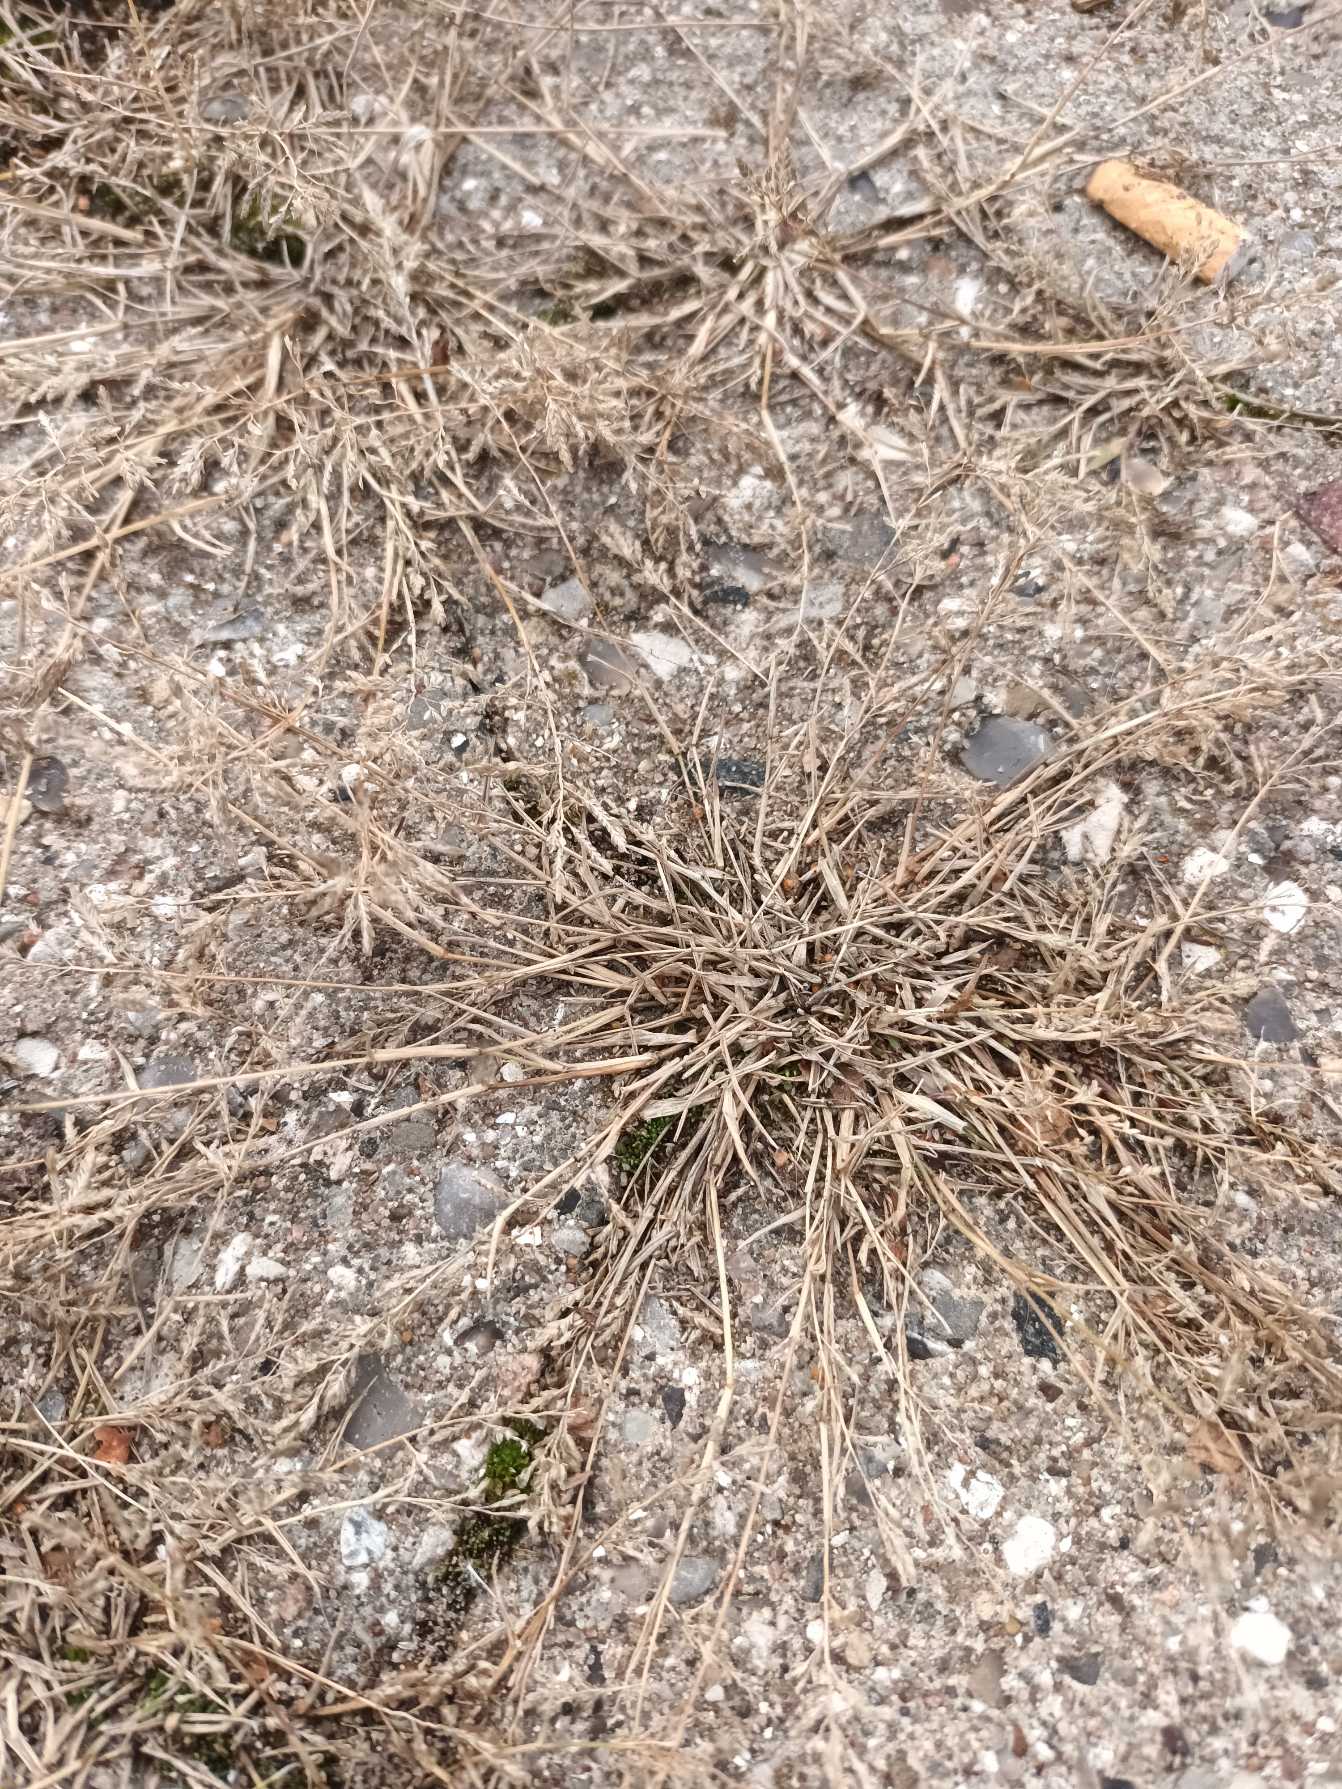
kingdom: Plantae
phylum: Tracheophyta
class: Liliopsida
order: Poales
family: Poaceae
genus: Eragrostis
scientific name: Eragrostis minor
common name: Liden kærlighedsgræs
